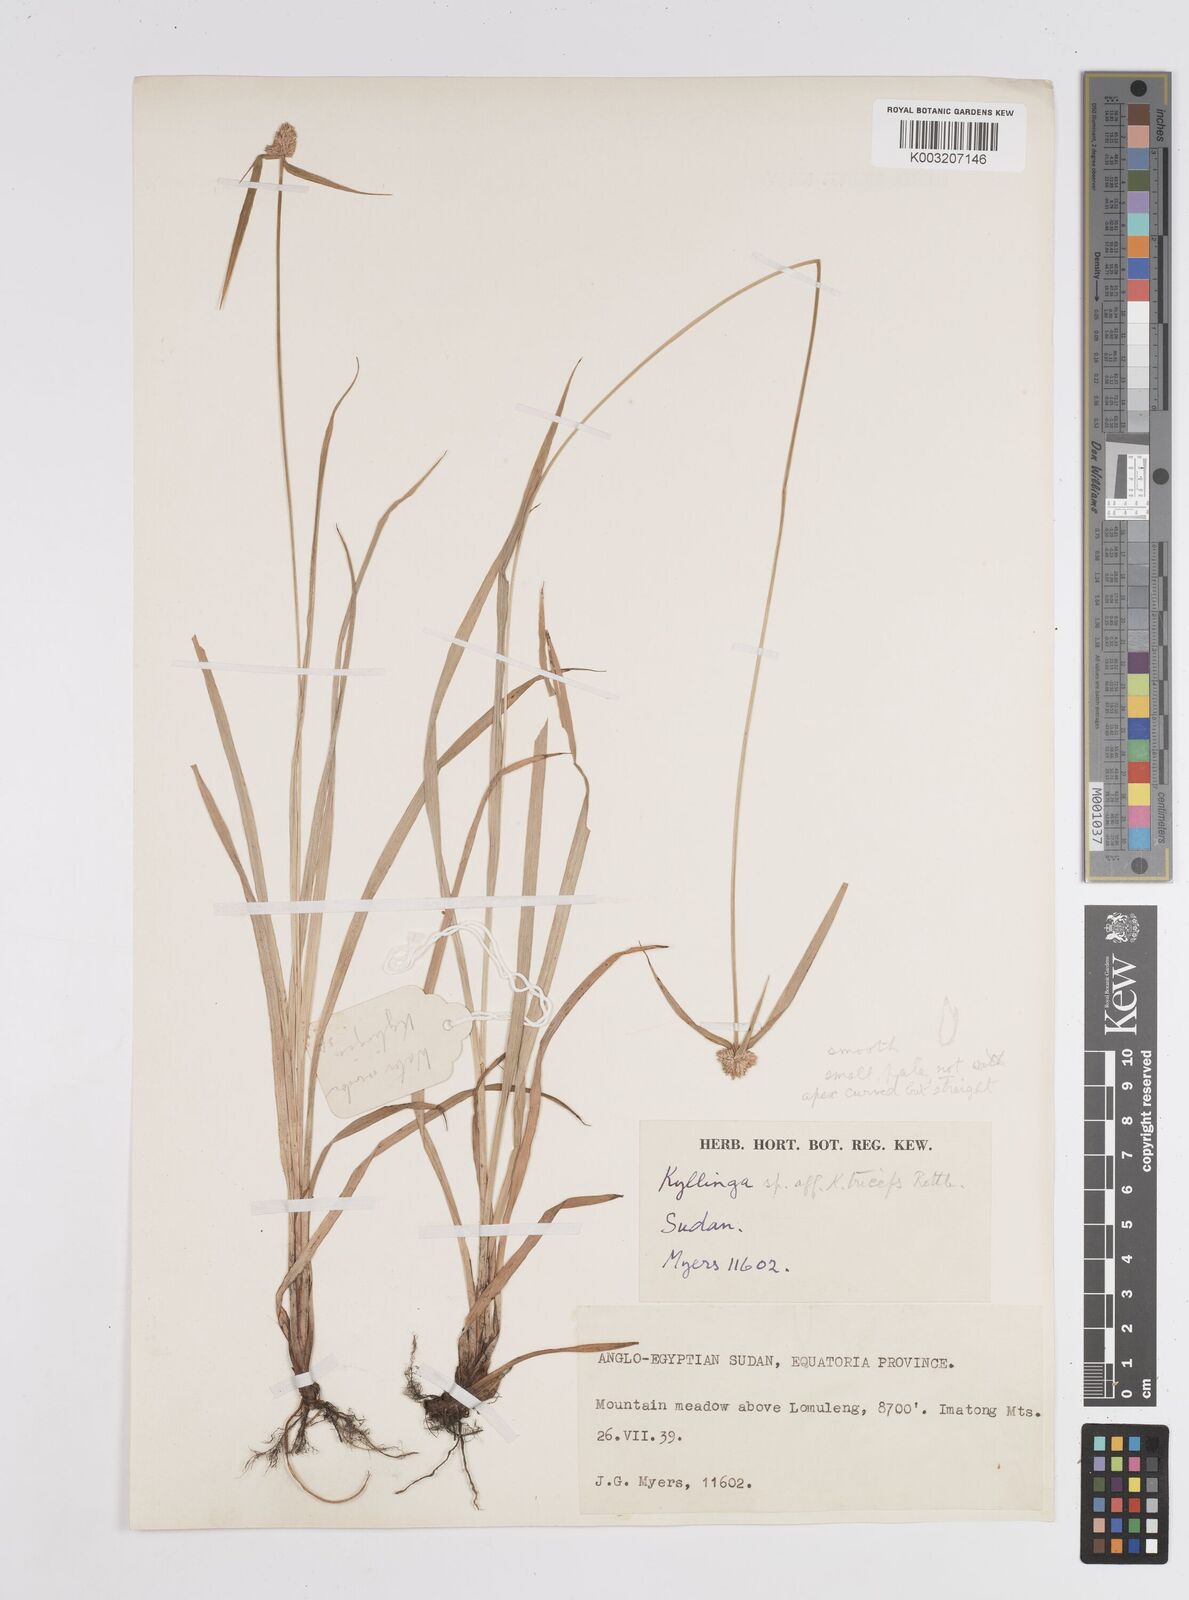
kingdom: Plantae
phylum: Tracheophyta
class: Liliopsida
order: Poales
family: Cyperaceae
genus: Cyperus
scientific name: Cyperus
